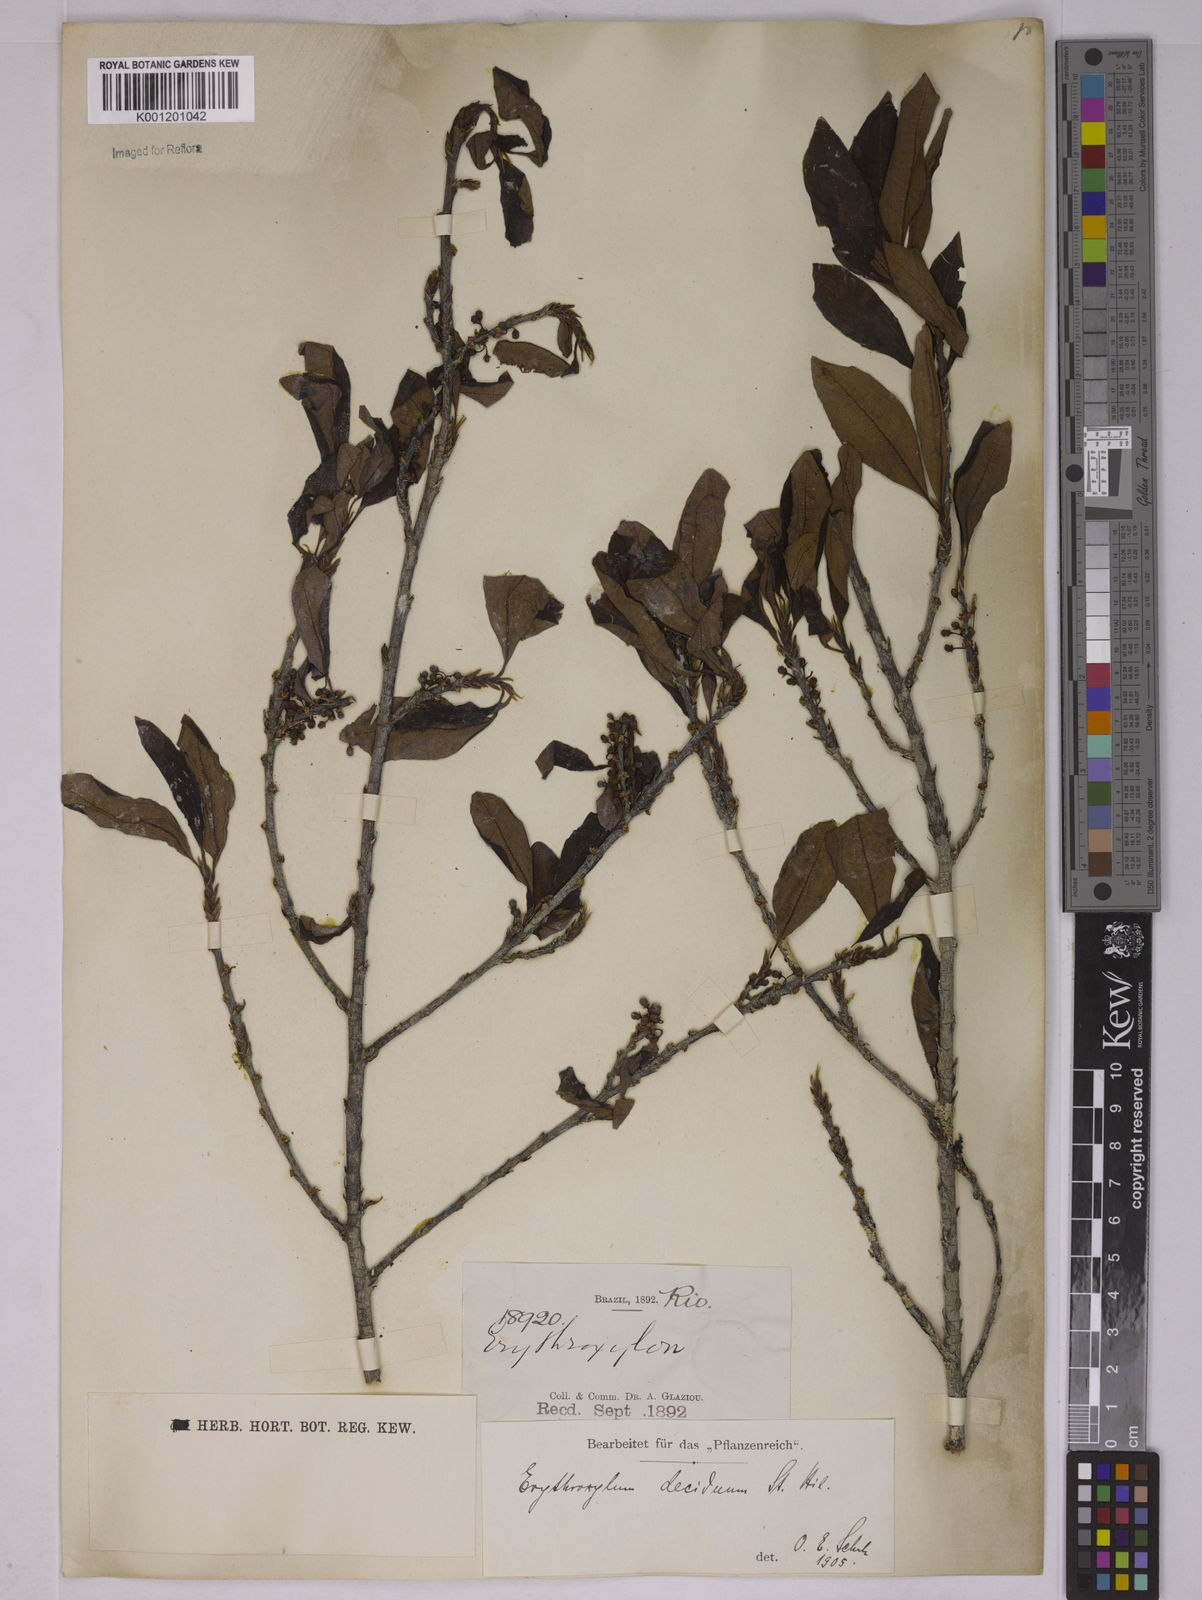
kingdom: Plantae
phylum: Tracheophyta
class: Magnoliopsida
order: Malpighiales
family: Erythroxylaceae
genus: Erythroxylum
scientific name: Erythroxylum deciduum
